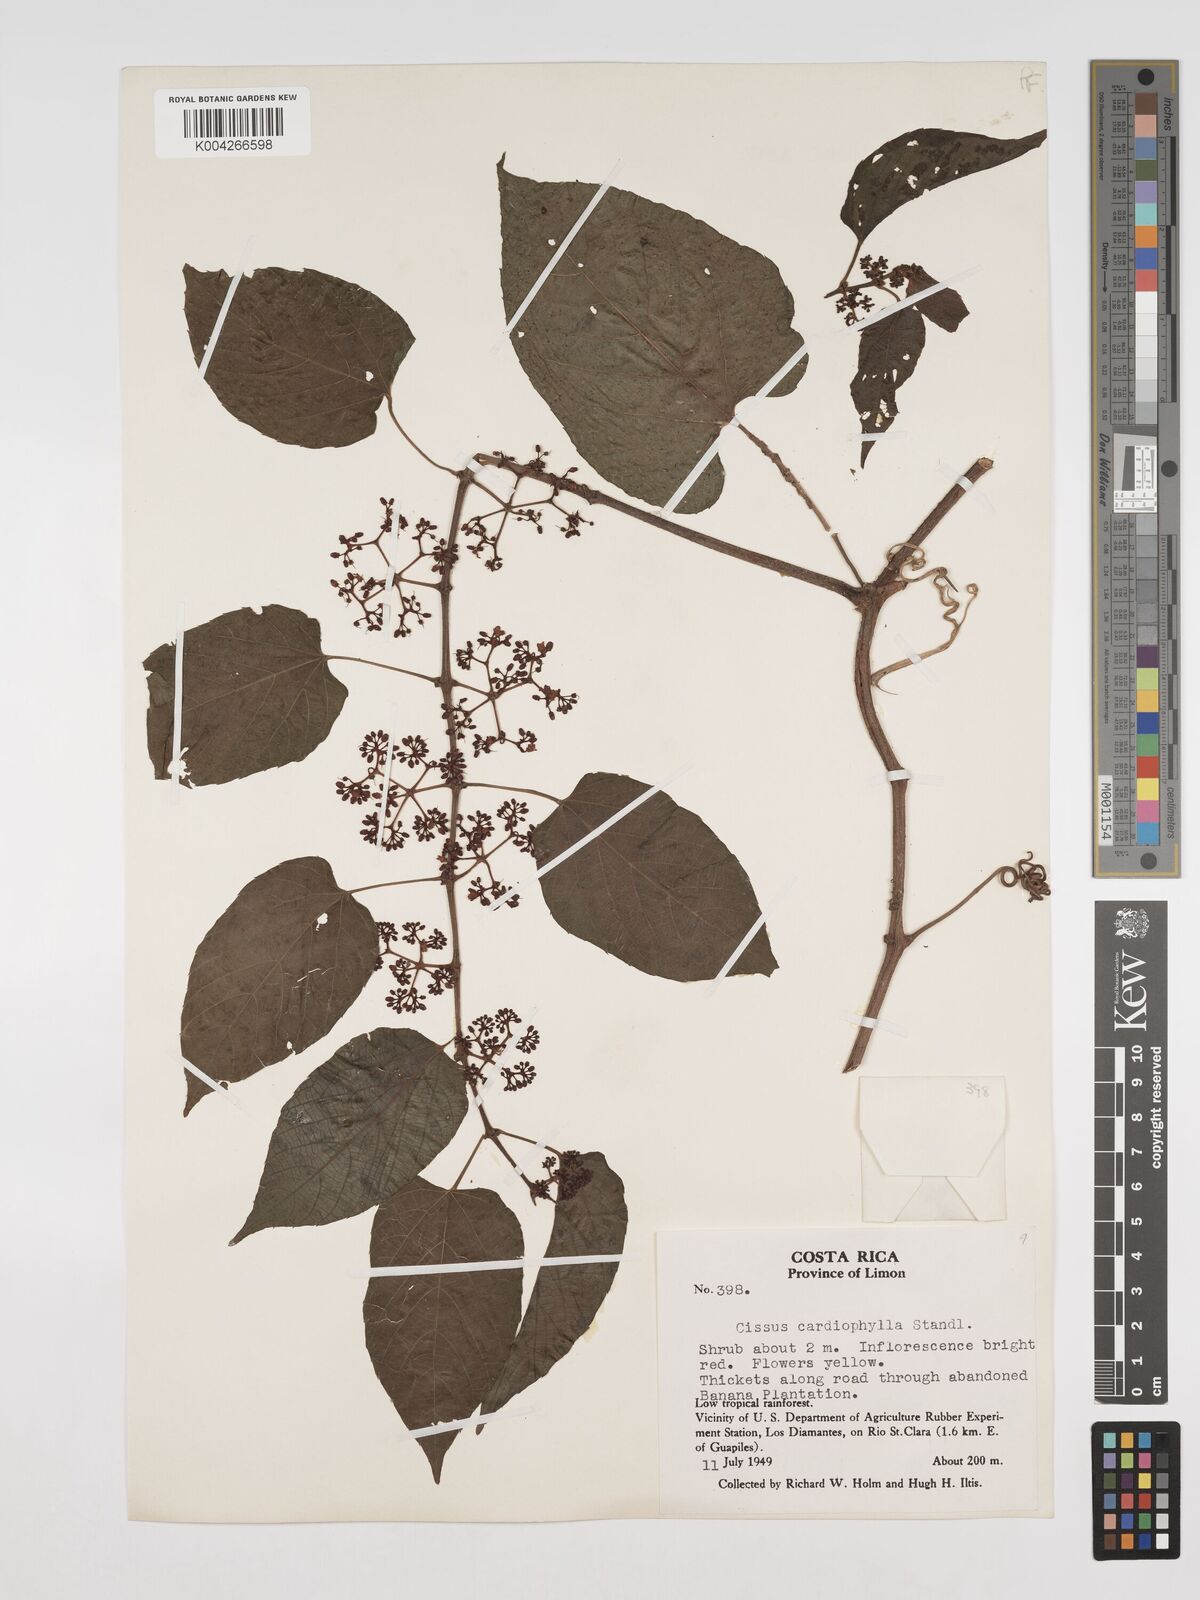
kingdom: Plantae
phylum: Tracheophyta
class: Magnoliopsida
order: Vitales
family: Vitaceae
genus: Cissus
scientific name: Cissus
